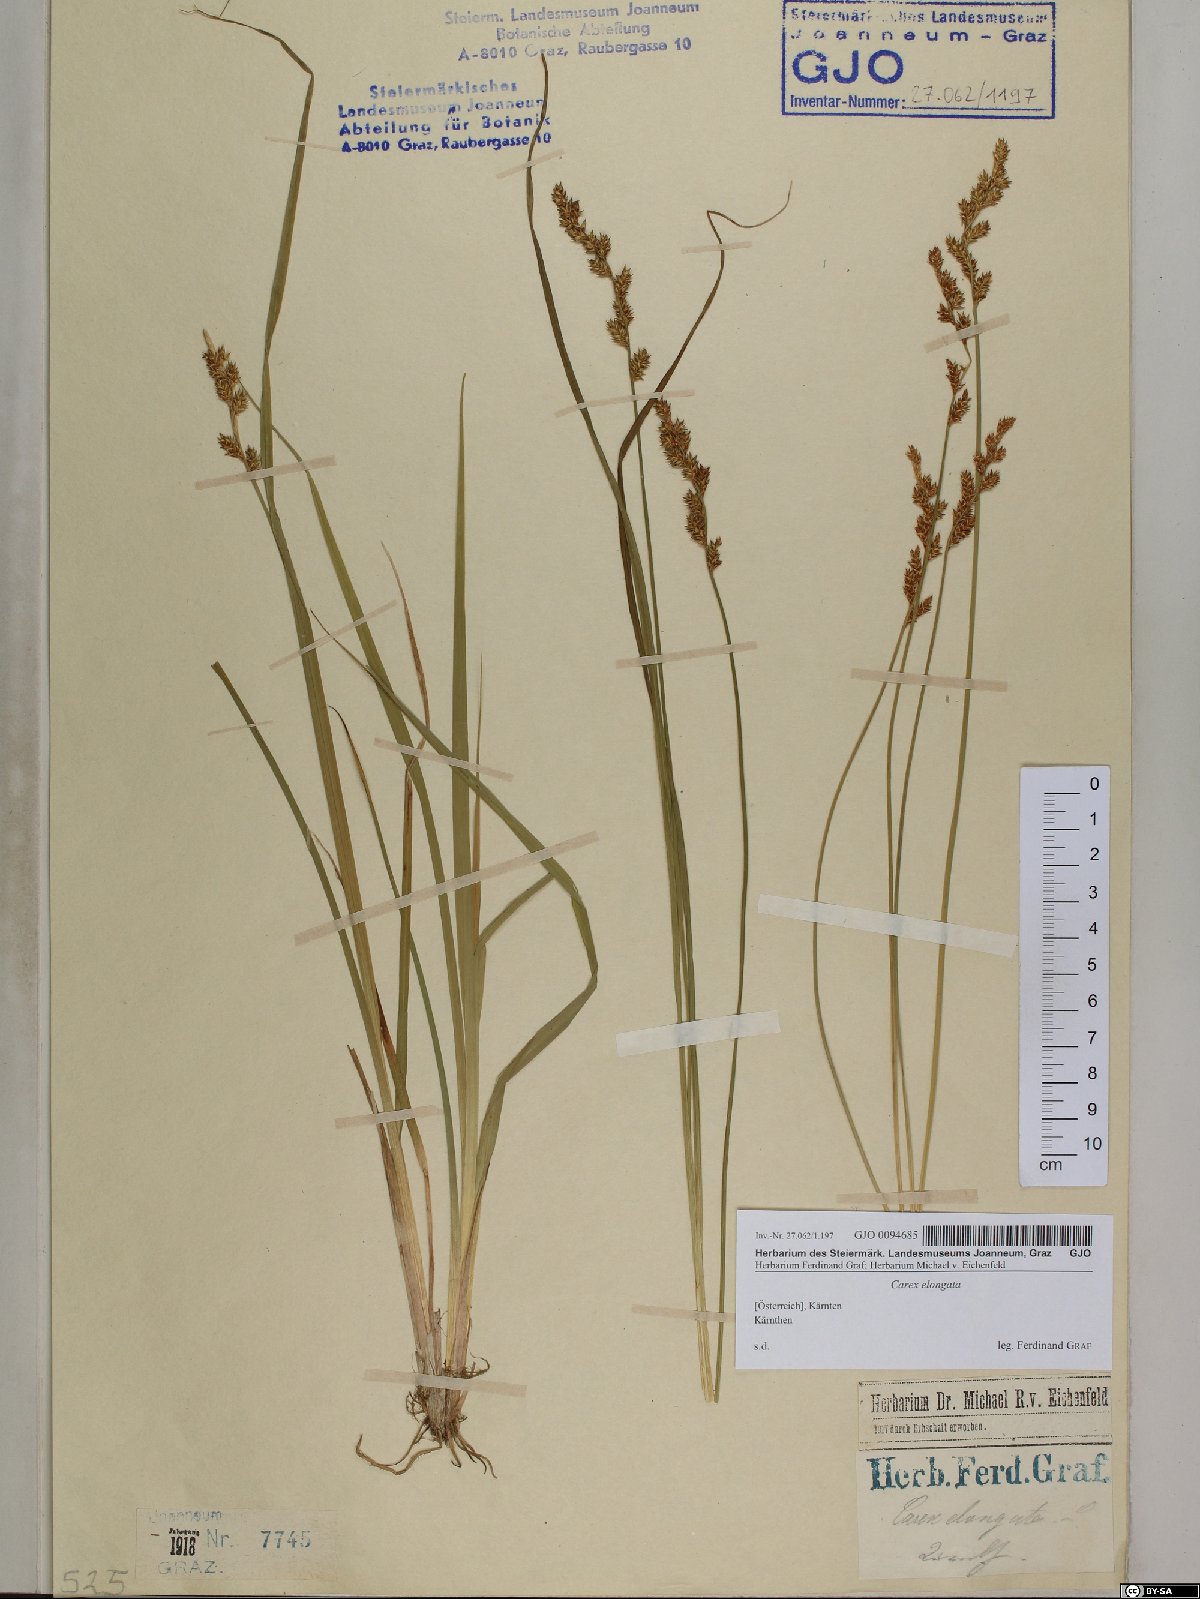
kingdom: Plantae
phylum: Tracheophyta
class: Liliopsida
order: Poales
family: Cyperaceae
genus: Carex
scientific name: Carex elongata
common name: Elongated sedge
